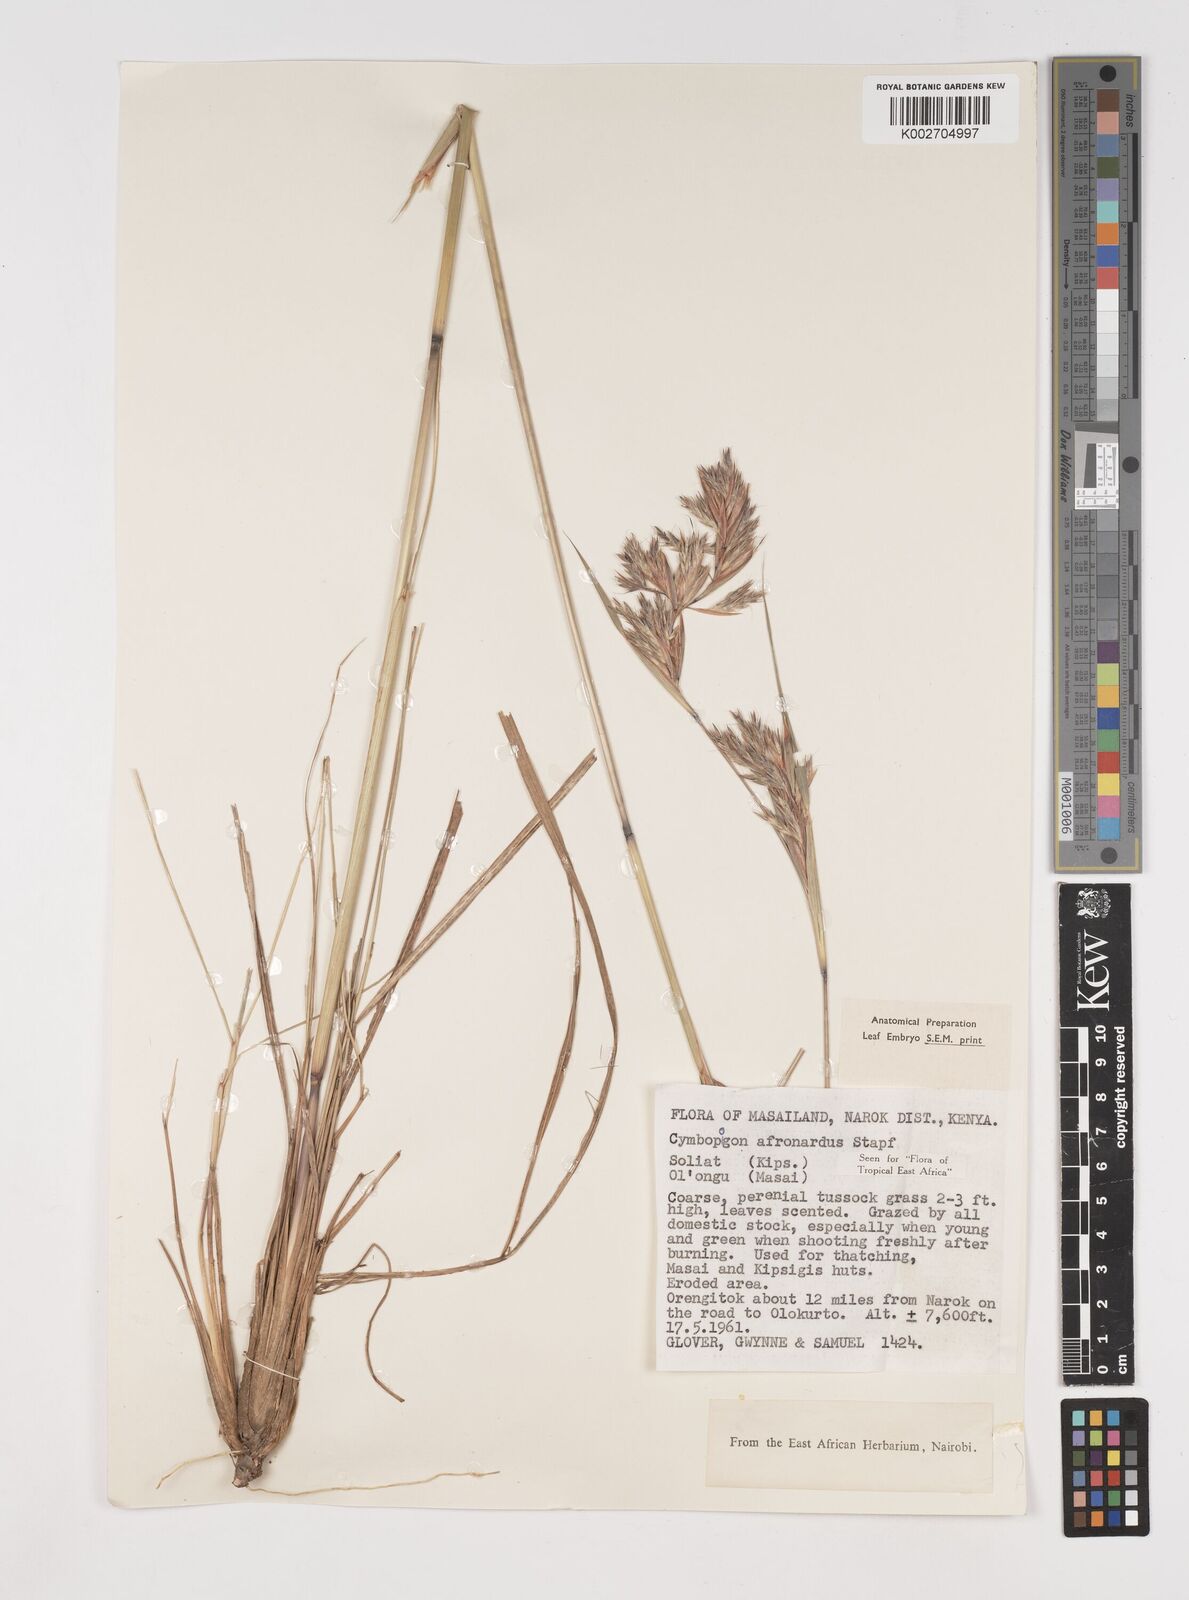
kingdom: Plantae
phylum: Tracheophyta
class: Liliopsida
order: Poales
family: Poaceae
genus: Cymbopogon
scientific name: Cymbopogon nardus
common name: Giant turpentine grass
